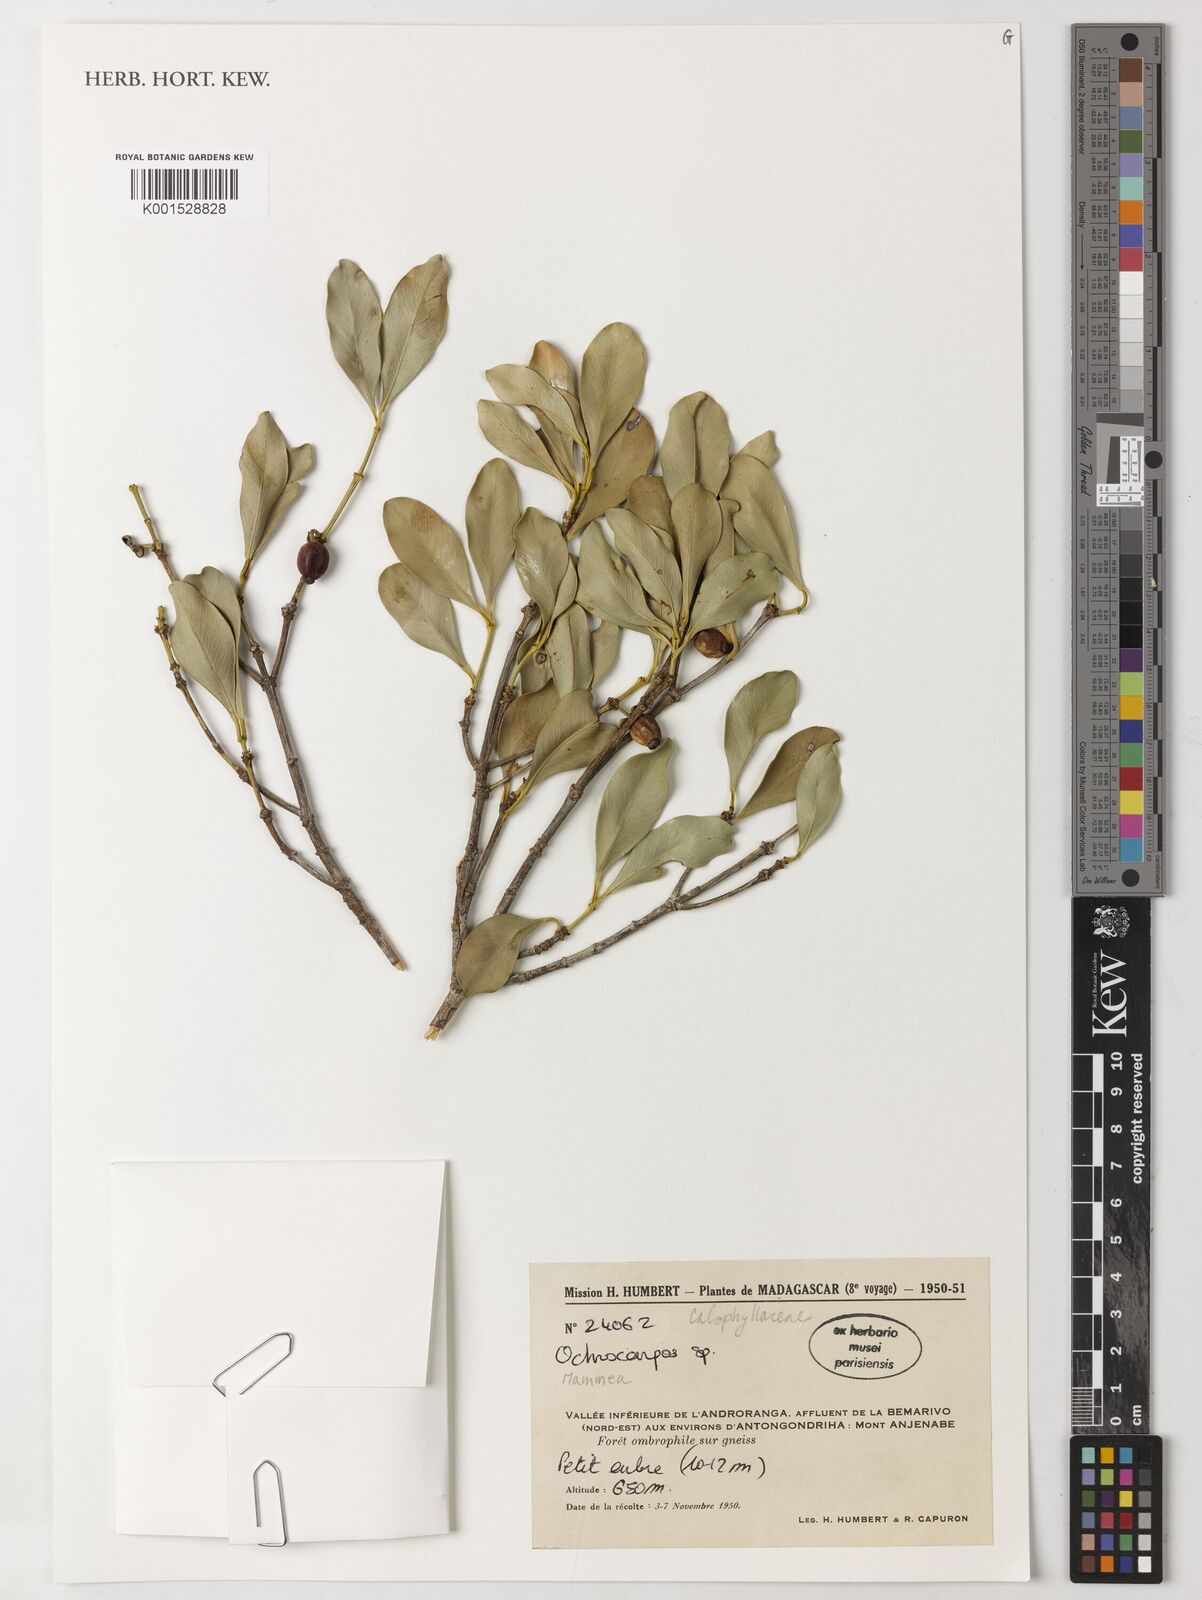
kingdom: Plantae
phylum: Tracheophyta
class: Magnoliopsida
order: Malpighiales
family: Calophyllaceae
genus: Mammea
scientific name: Mammea
